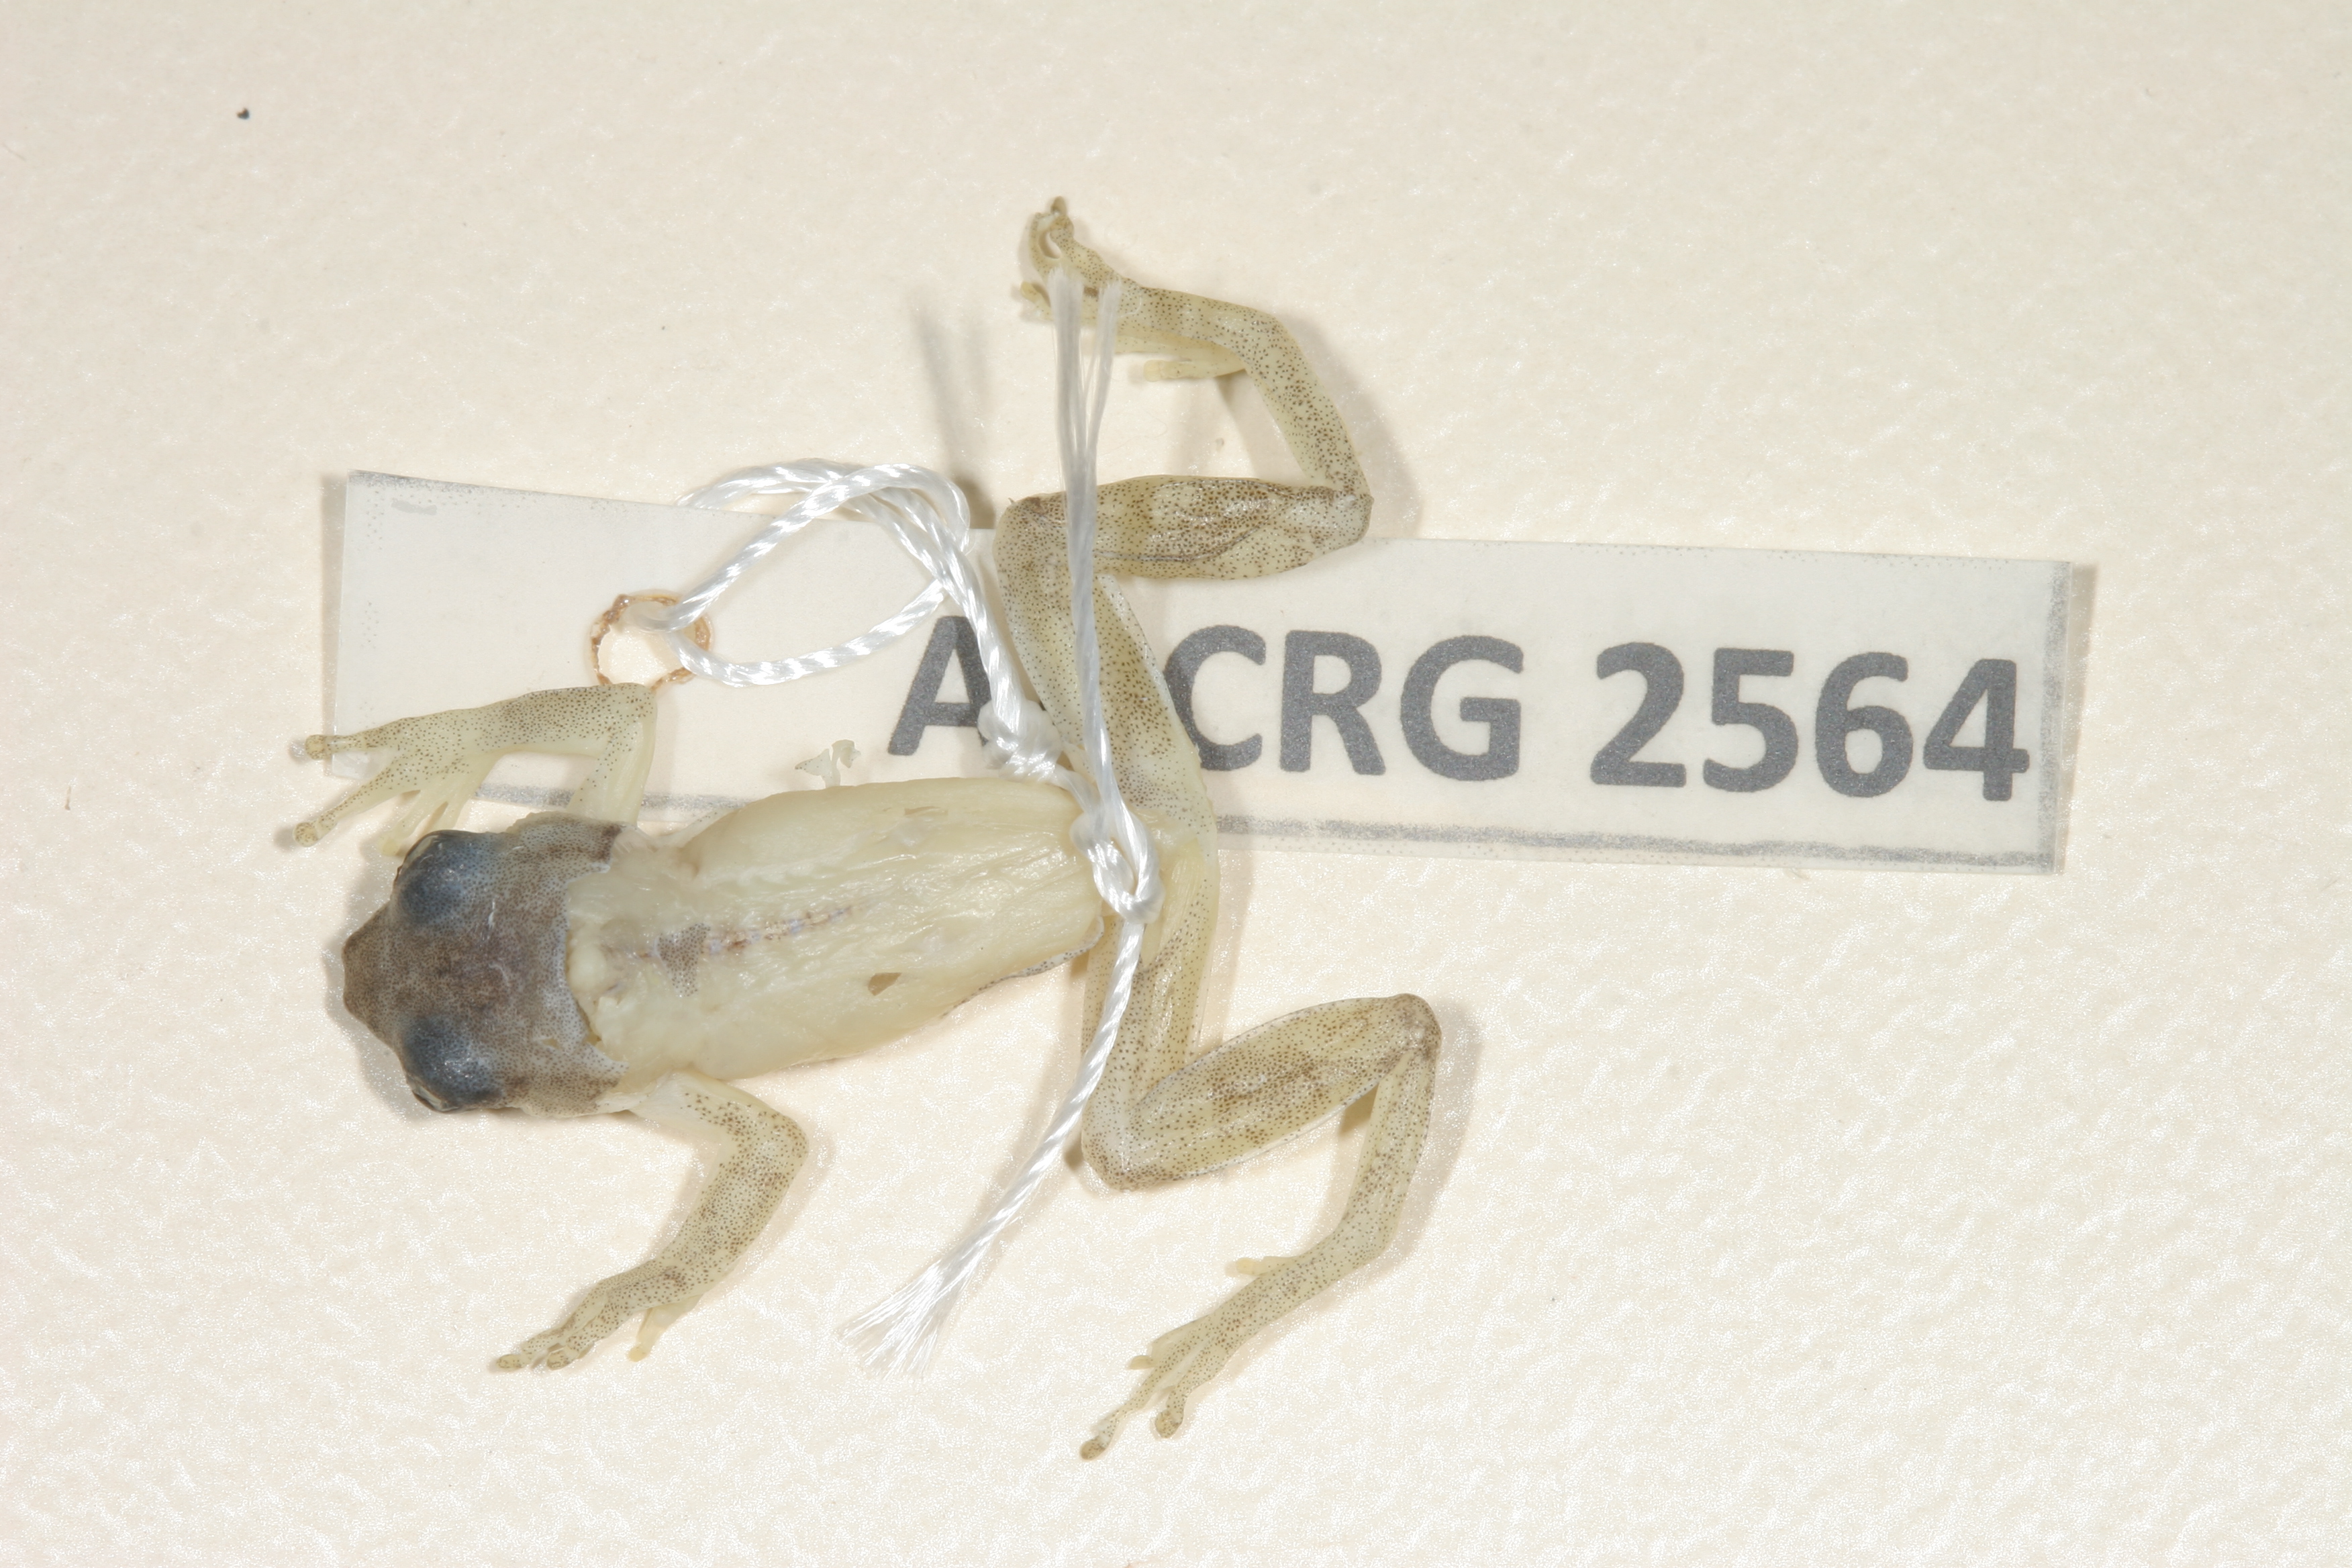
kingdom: Animalia
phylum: Chordata
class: Amphibia
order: Anura
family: Hyperoliidae
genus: Afrixalus
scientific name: Afrixalus aureus
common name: Golden banana frog
